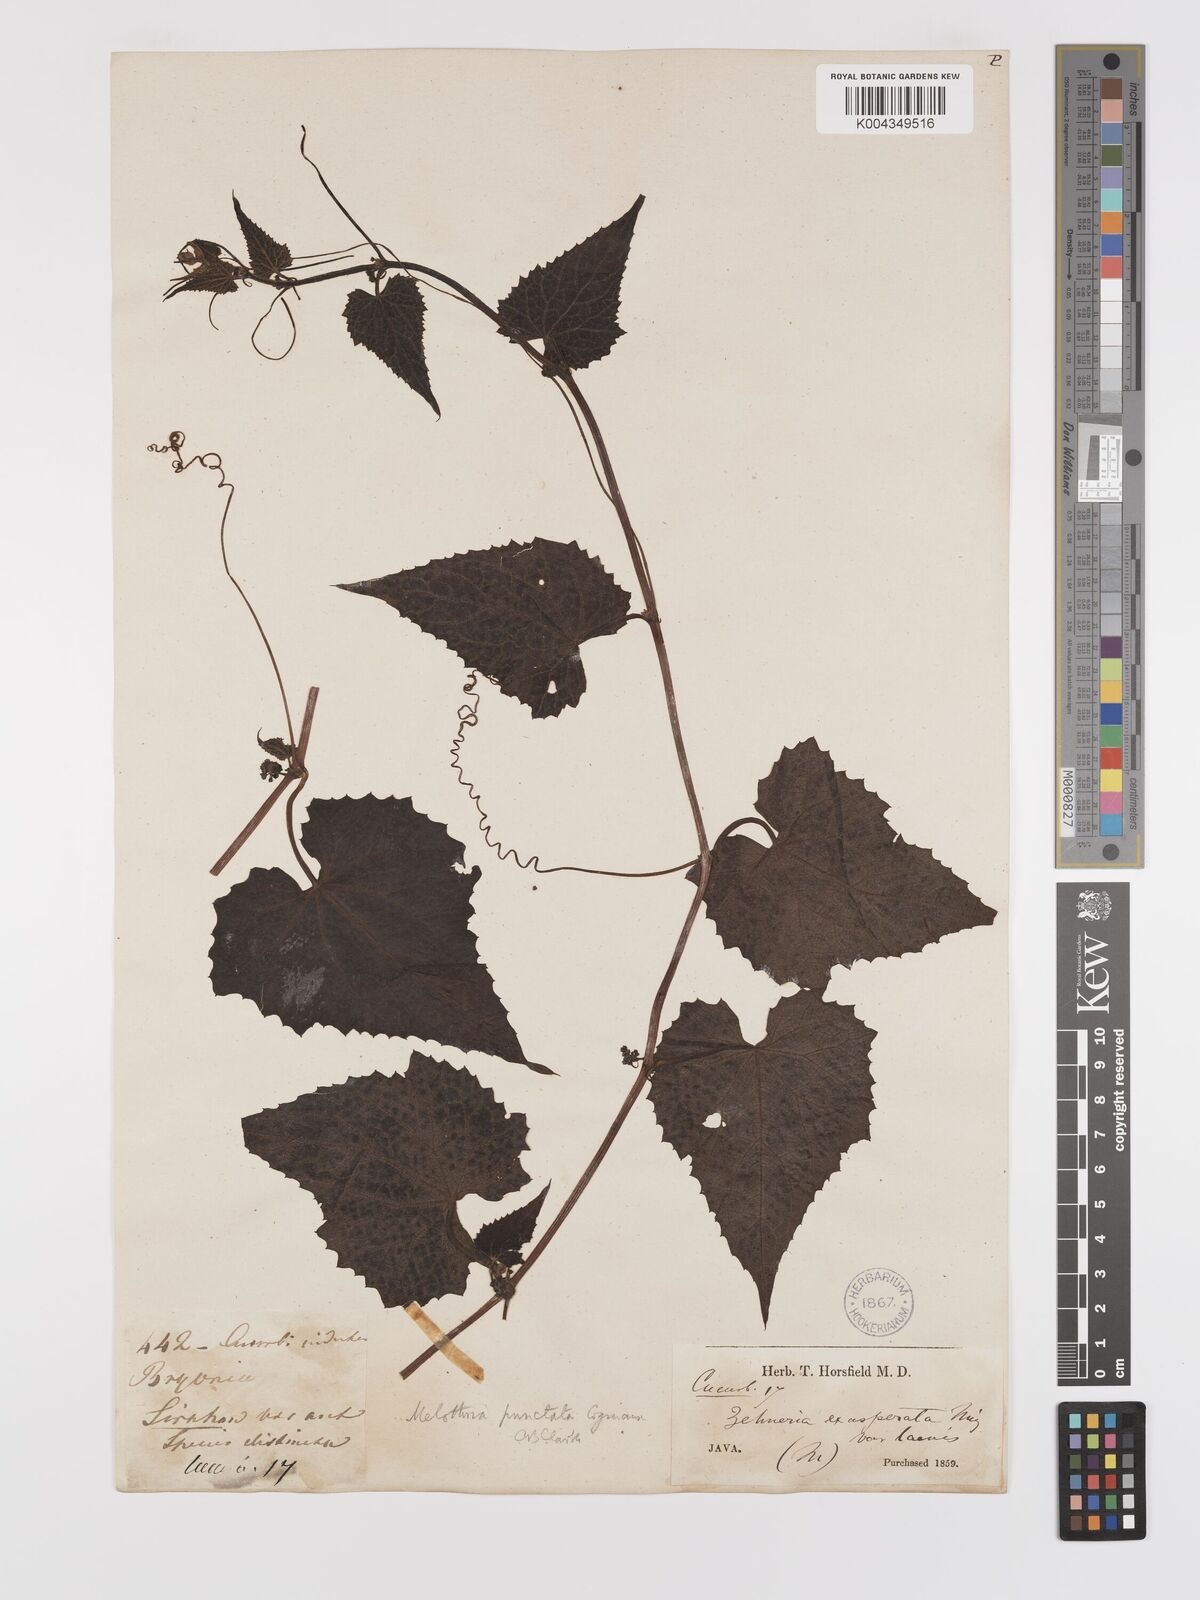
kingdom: Plantae
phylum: Tracheophyta
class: Magnoliopsida
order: Cucurbitales
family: Cucurbitaceae
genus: Zehneria
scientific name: Zehneria scabra
